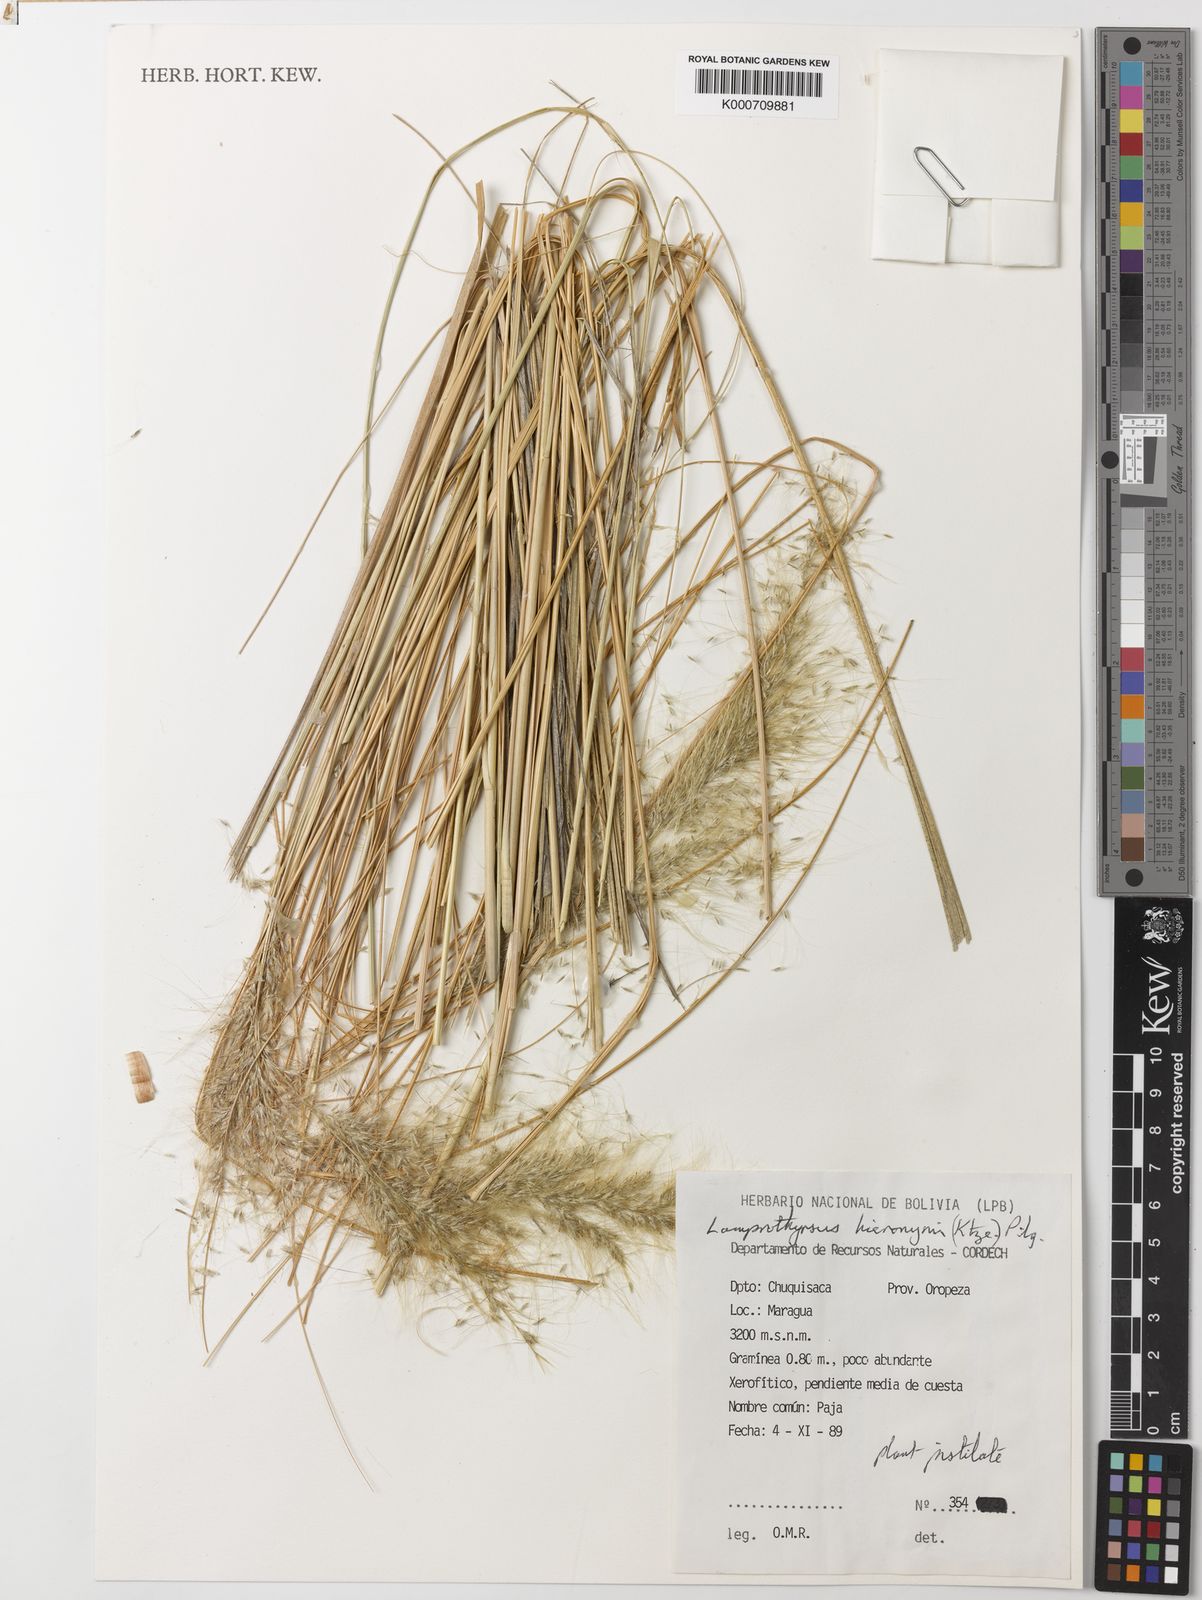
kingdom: Plantae
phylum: Tracheophyta
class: Liliopsida
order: Poales
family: Poaceae
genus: Cortaderia
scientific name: Cortaderia hieronymi
